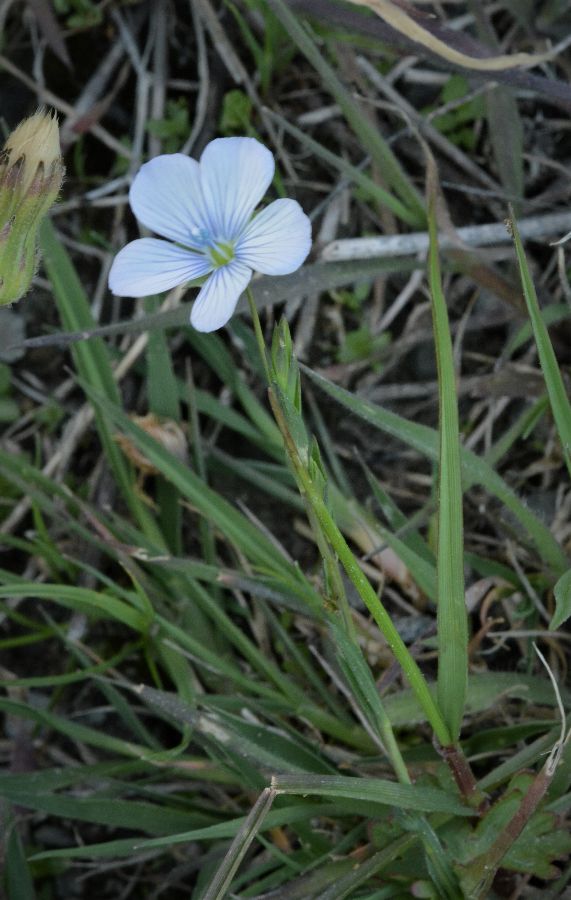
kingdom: Plantae
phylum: Tracheophyta
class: Magnoliopsida
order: Malpighiales
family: Linaceae
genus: Linum
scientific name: Linum bienne
